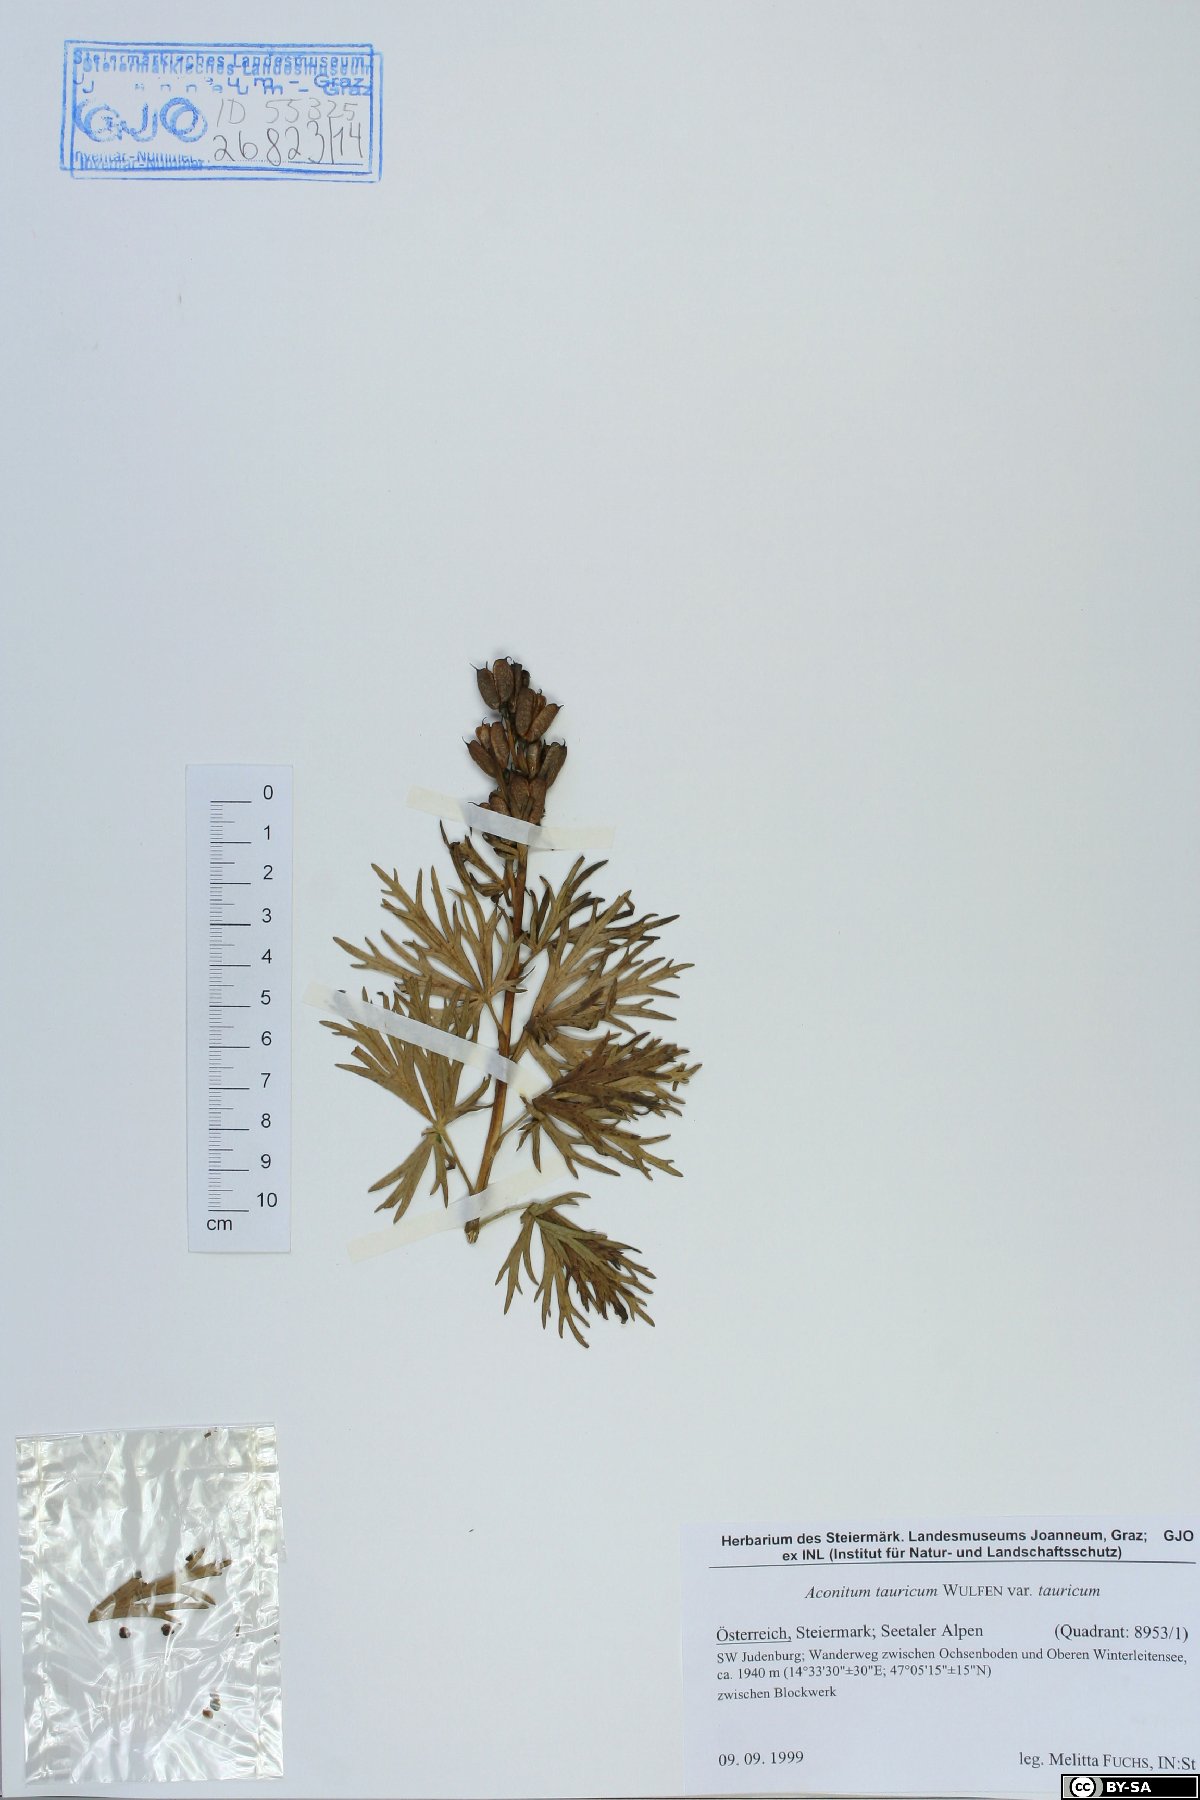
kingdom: Plantae
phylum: Tracheophyta
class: Magnoliopsida
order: Ranunculales
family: Ranunculaceae
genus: Aconitum
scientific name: Aconitum tauricum
